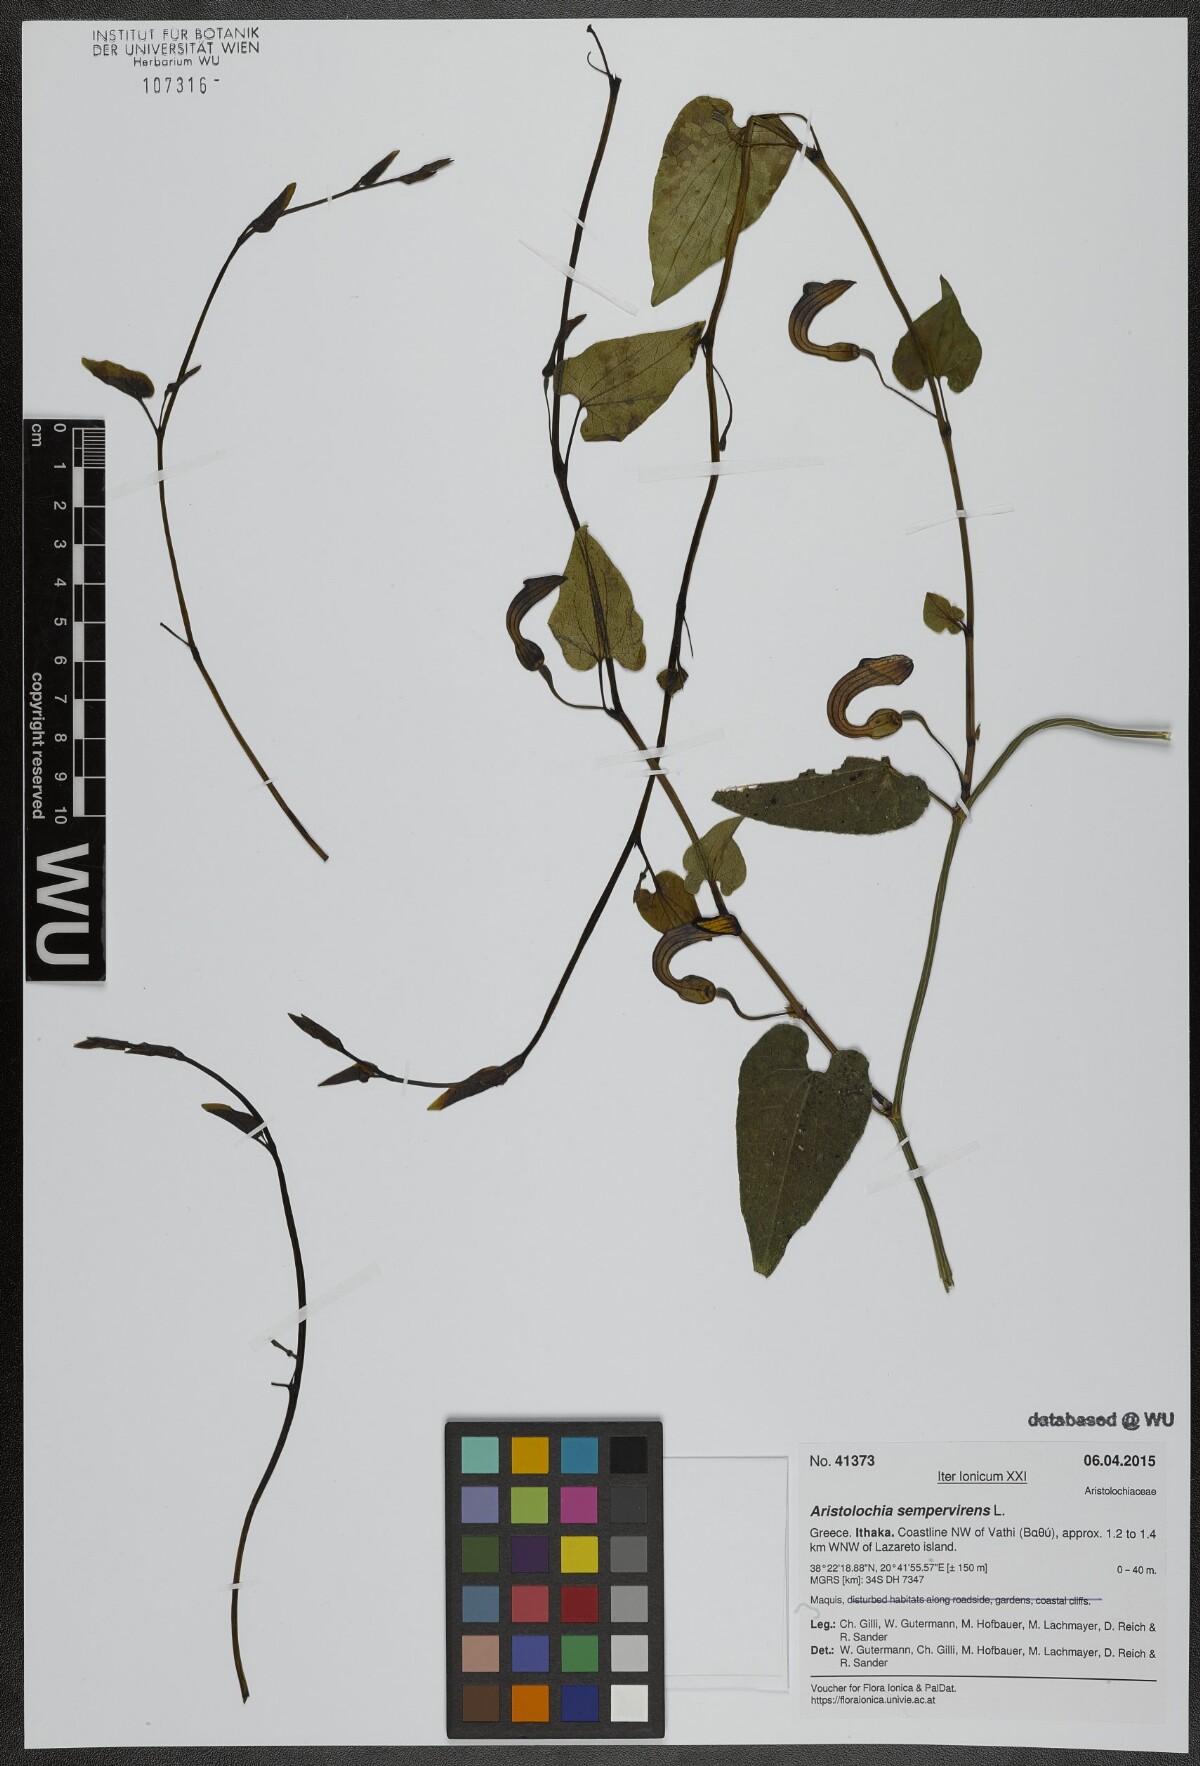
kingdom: Plantae
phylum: Tracheophyta
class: Magnoliopsida
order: Piperales
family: Aristolochiaceae
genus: Aristolochia
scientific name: Aristolochia sempervirens
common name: Long birthwort
